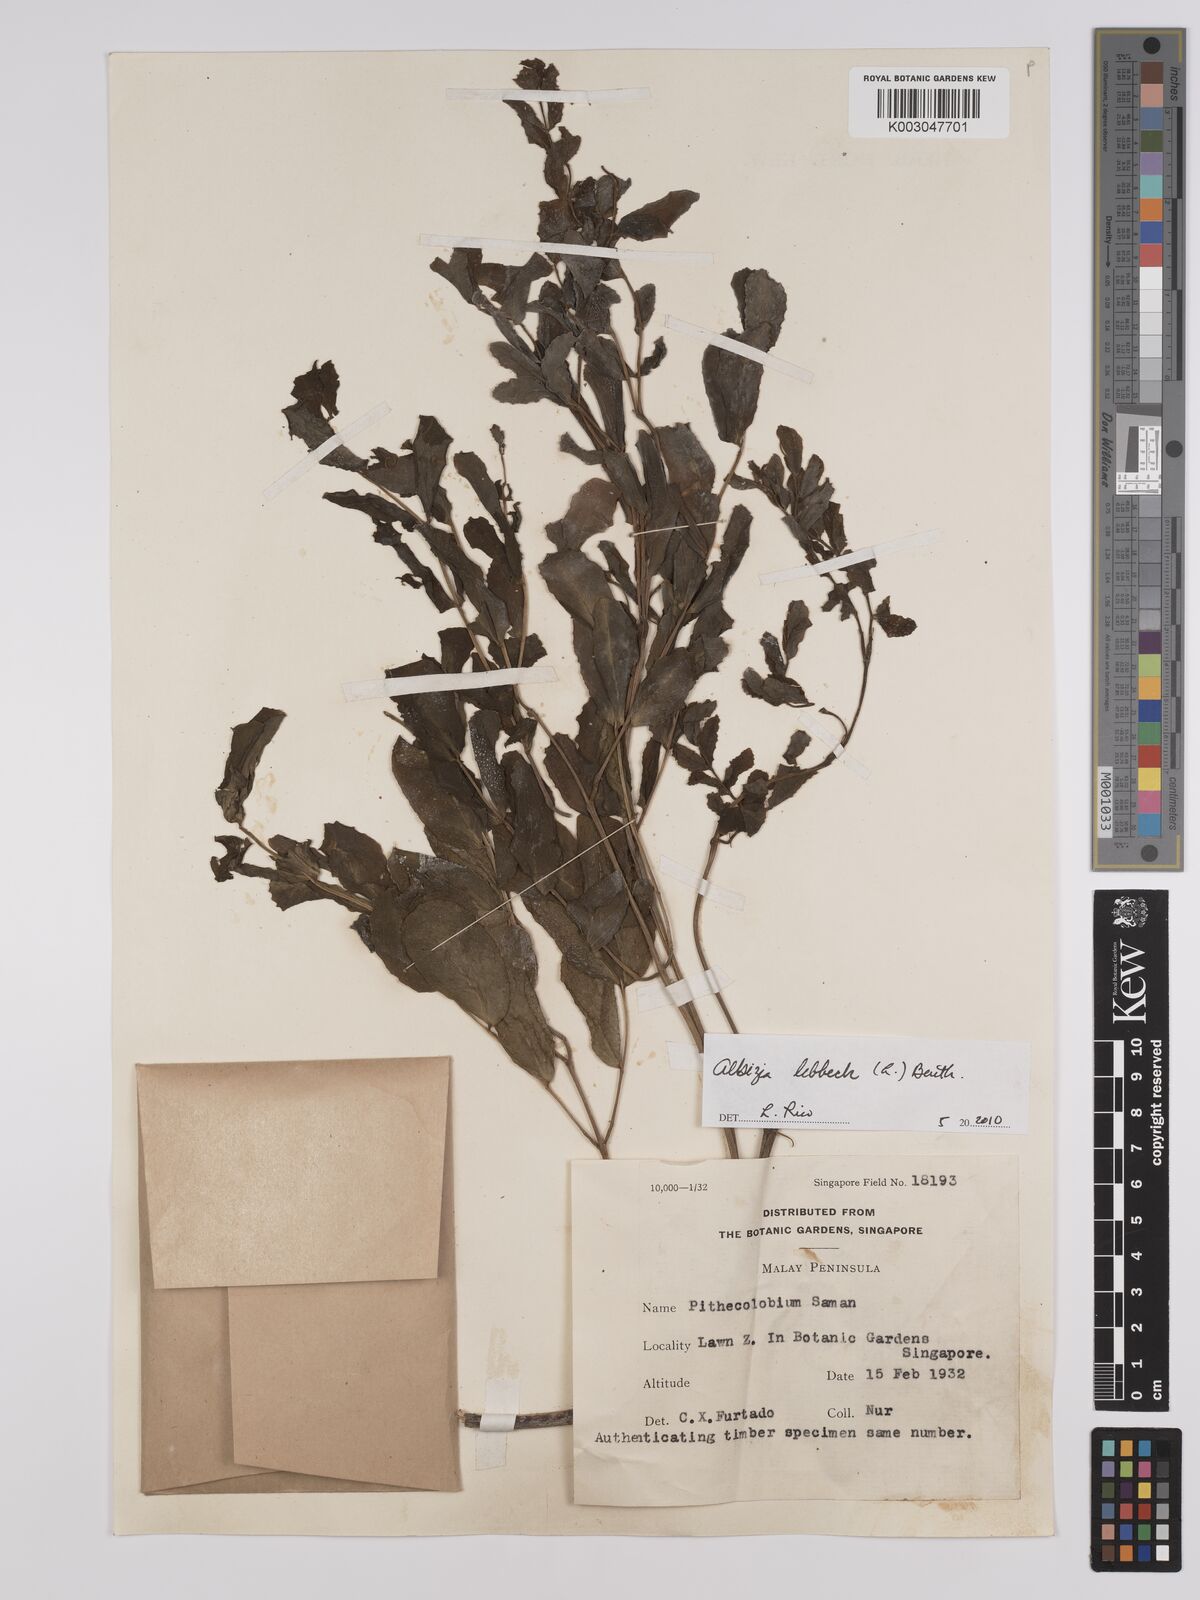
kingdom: Plantae
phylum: Tracheophyta
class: Magnoliopsida
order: Fabales
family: Fabaceae
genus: Albizia
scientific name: Albizia lebbeck
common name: Woman's tongue
